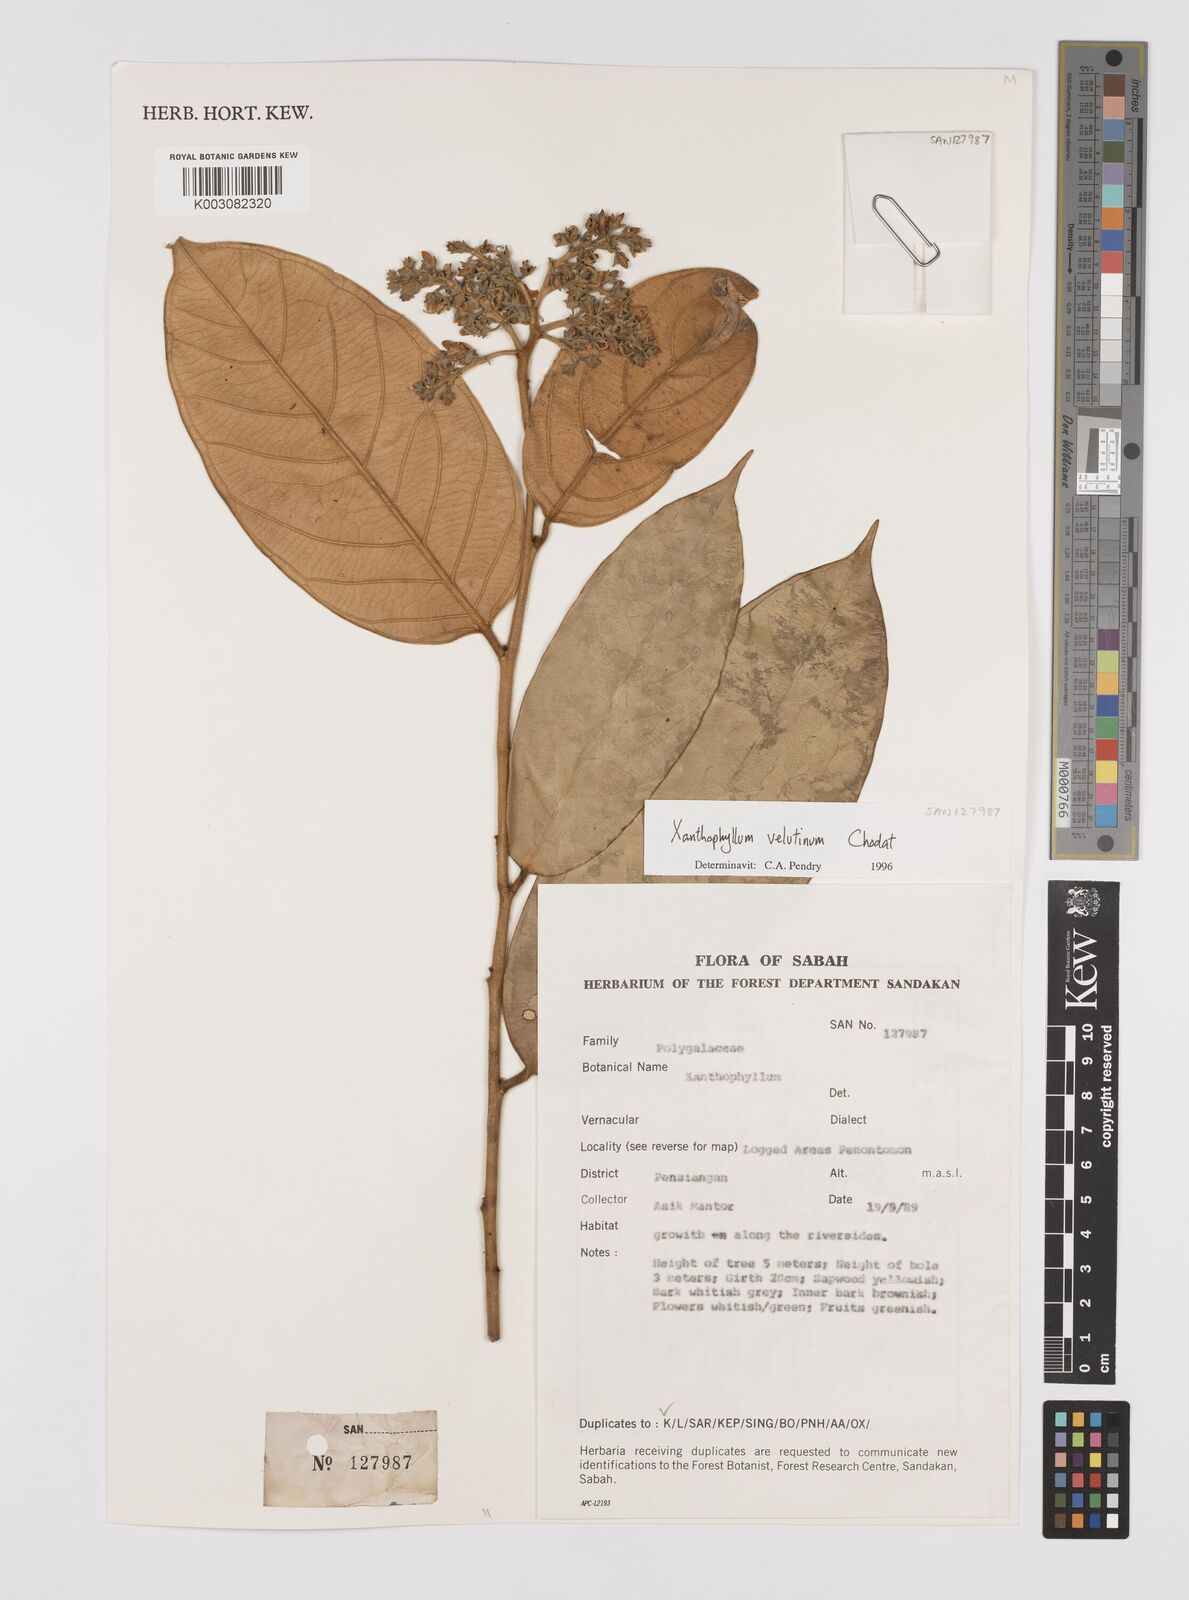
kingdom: Plantae
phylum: Tracheophyta
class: Magnoliopsida
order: Fabales
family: Polygalaceae
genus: Xanthophyllum
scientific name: Xanthophyllum velutinum
